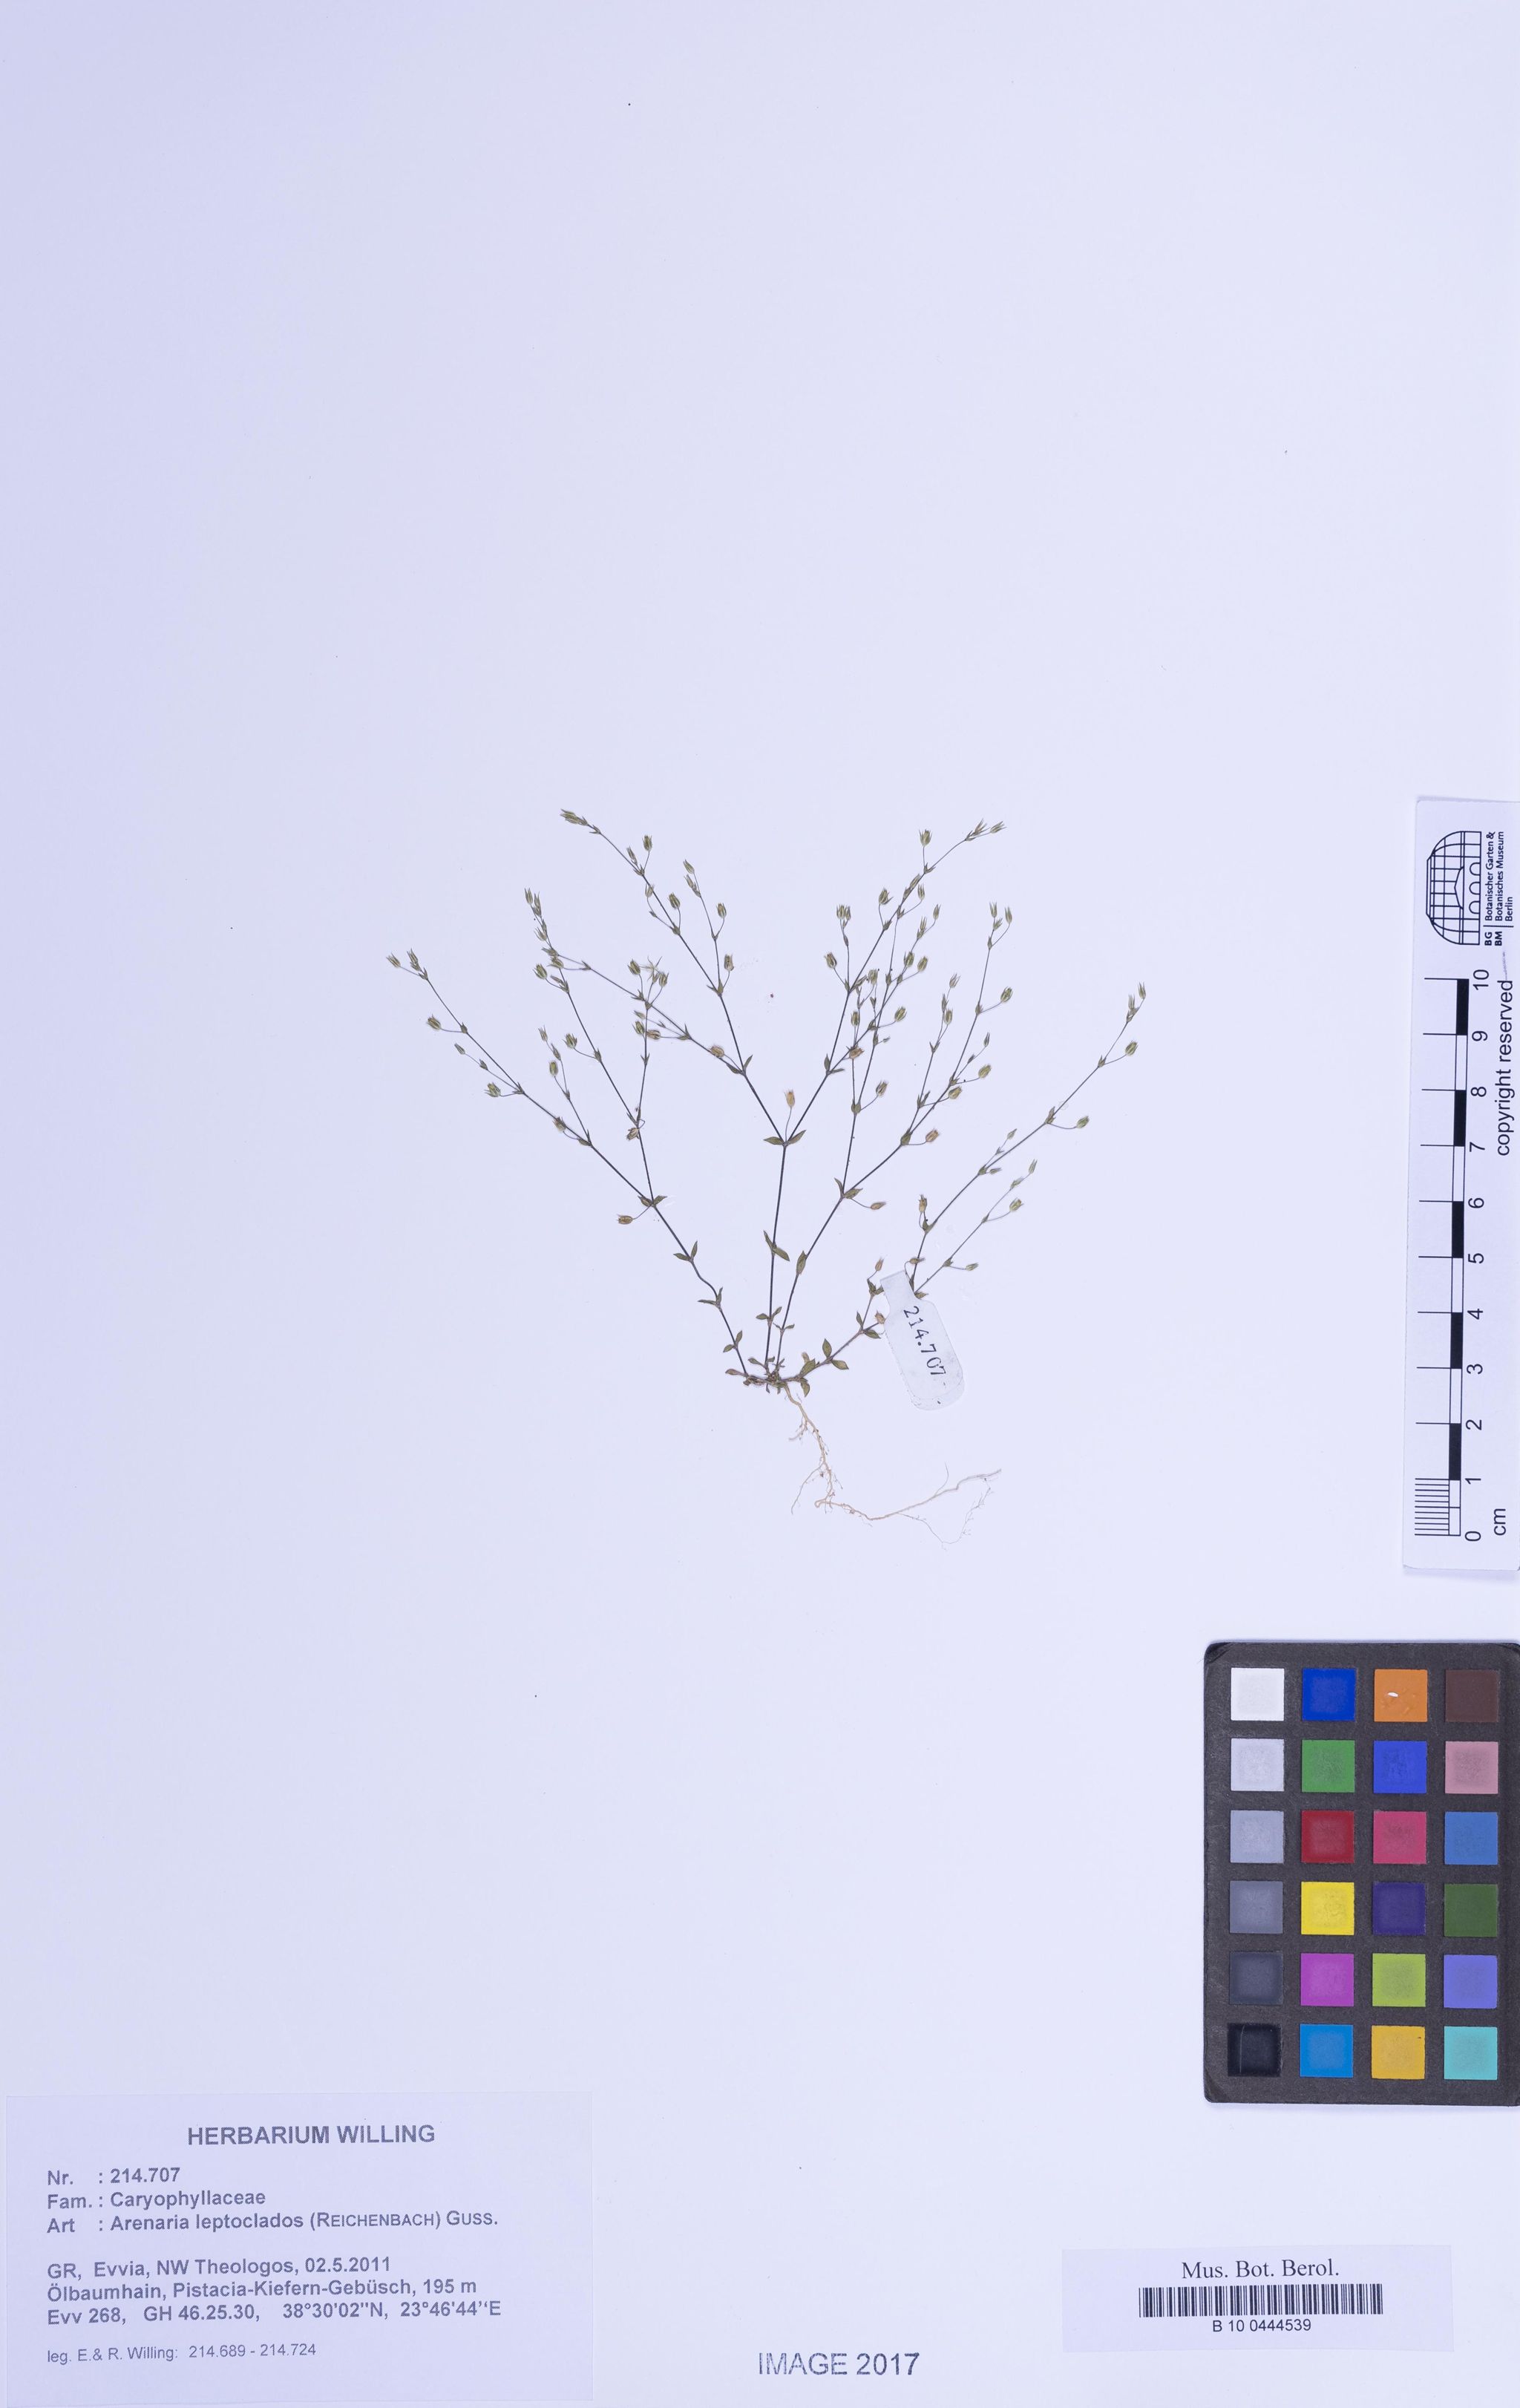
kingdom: Plantae
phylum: Tracheophyta
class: Magnoliopsida
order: Caryophyllales
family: Caryophyllaceae
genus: Arenaria
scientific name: Arenaria leptoclados
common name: Thyme-leaved sandwort
